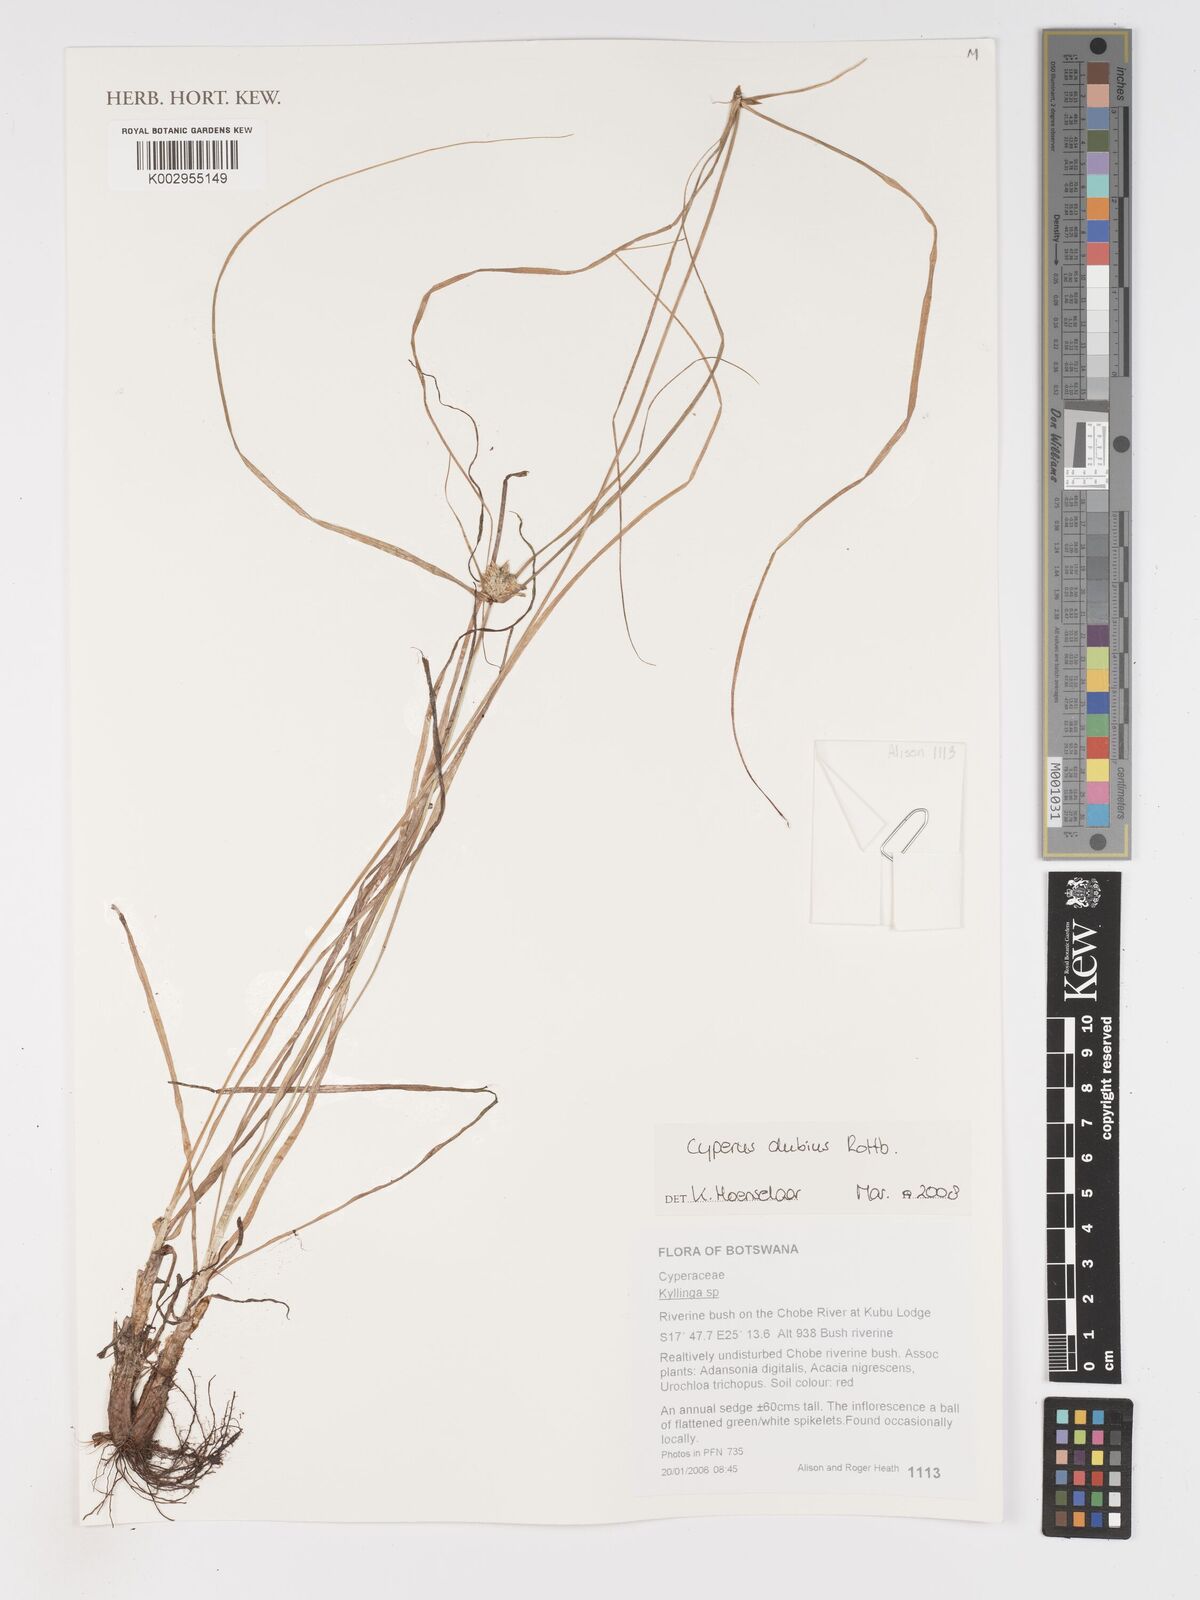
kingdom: Plantae
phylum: Tracheophyta
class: Liliopsida
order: Poales
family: Cyperaceae
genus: Cyperus
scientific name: Cyperus dubius
